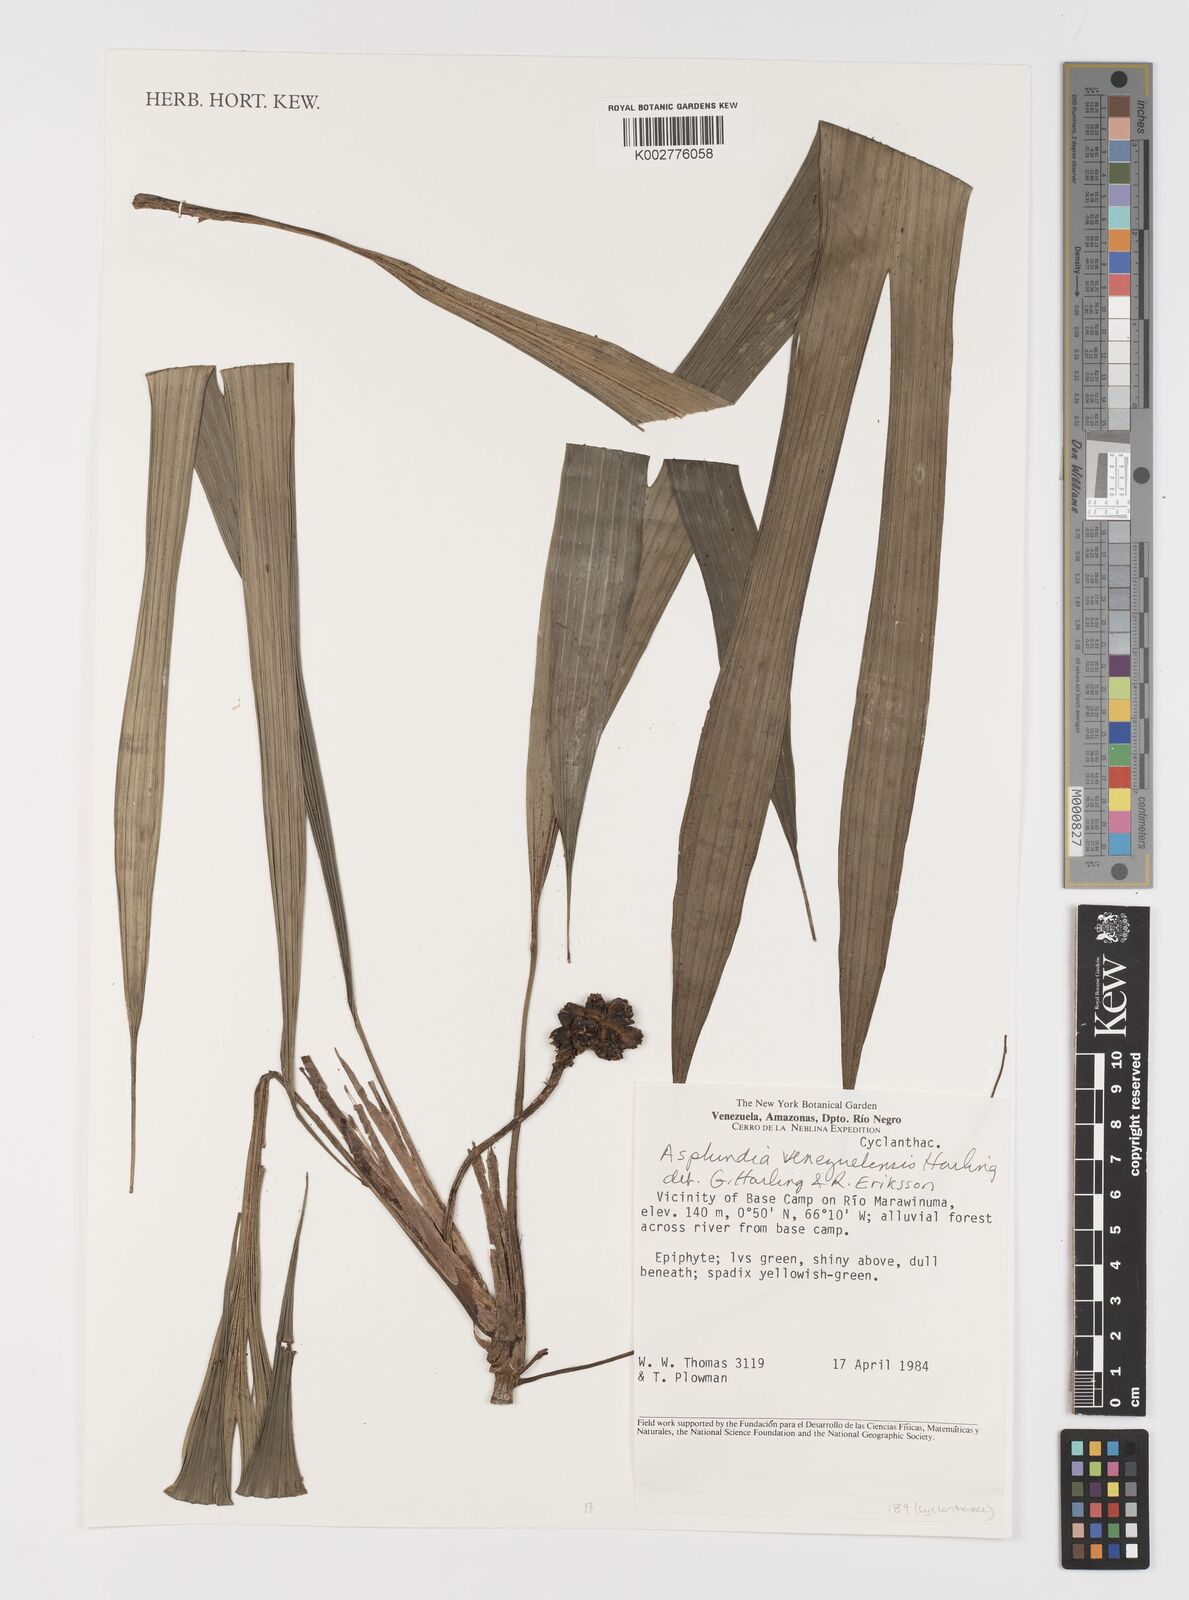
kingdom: Plantae
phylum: Tracheophyta
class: Liliopsida
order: Pandanales
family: Cyclanthaceae
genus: Asplundia
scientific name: Asplundia venezuelensis
